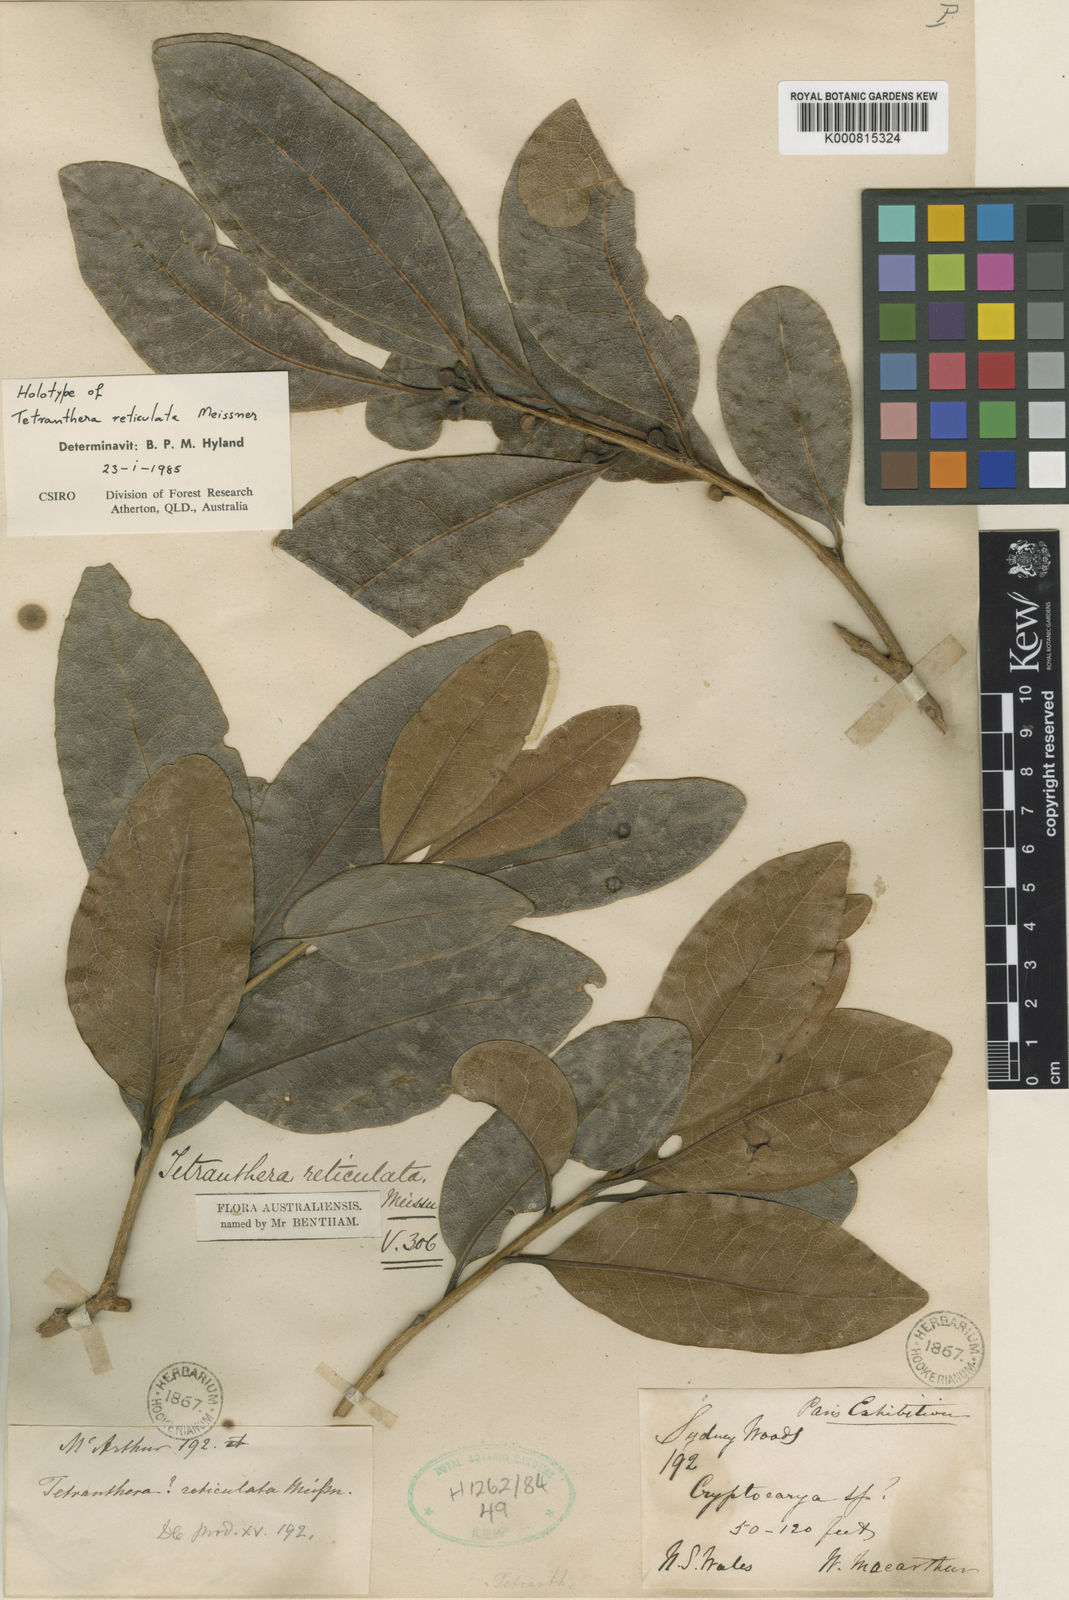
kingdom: Plantae
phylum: Tracheophyta
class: Magnoliopsida
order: Laurales
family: Lauraceae
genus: Litsea
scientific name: Litsea reticulata
